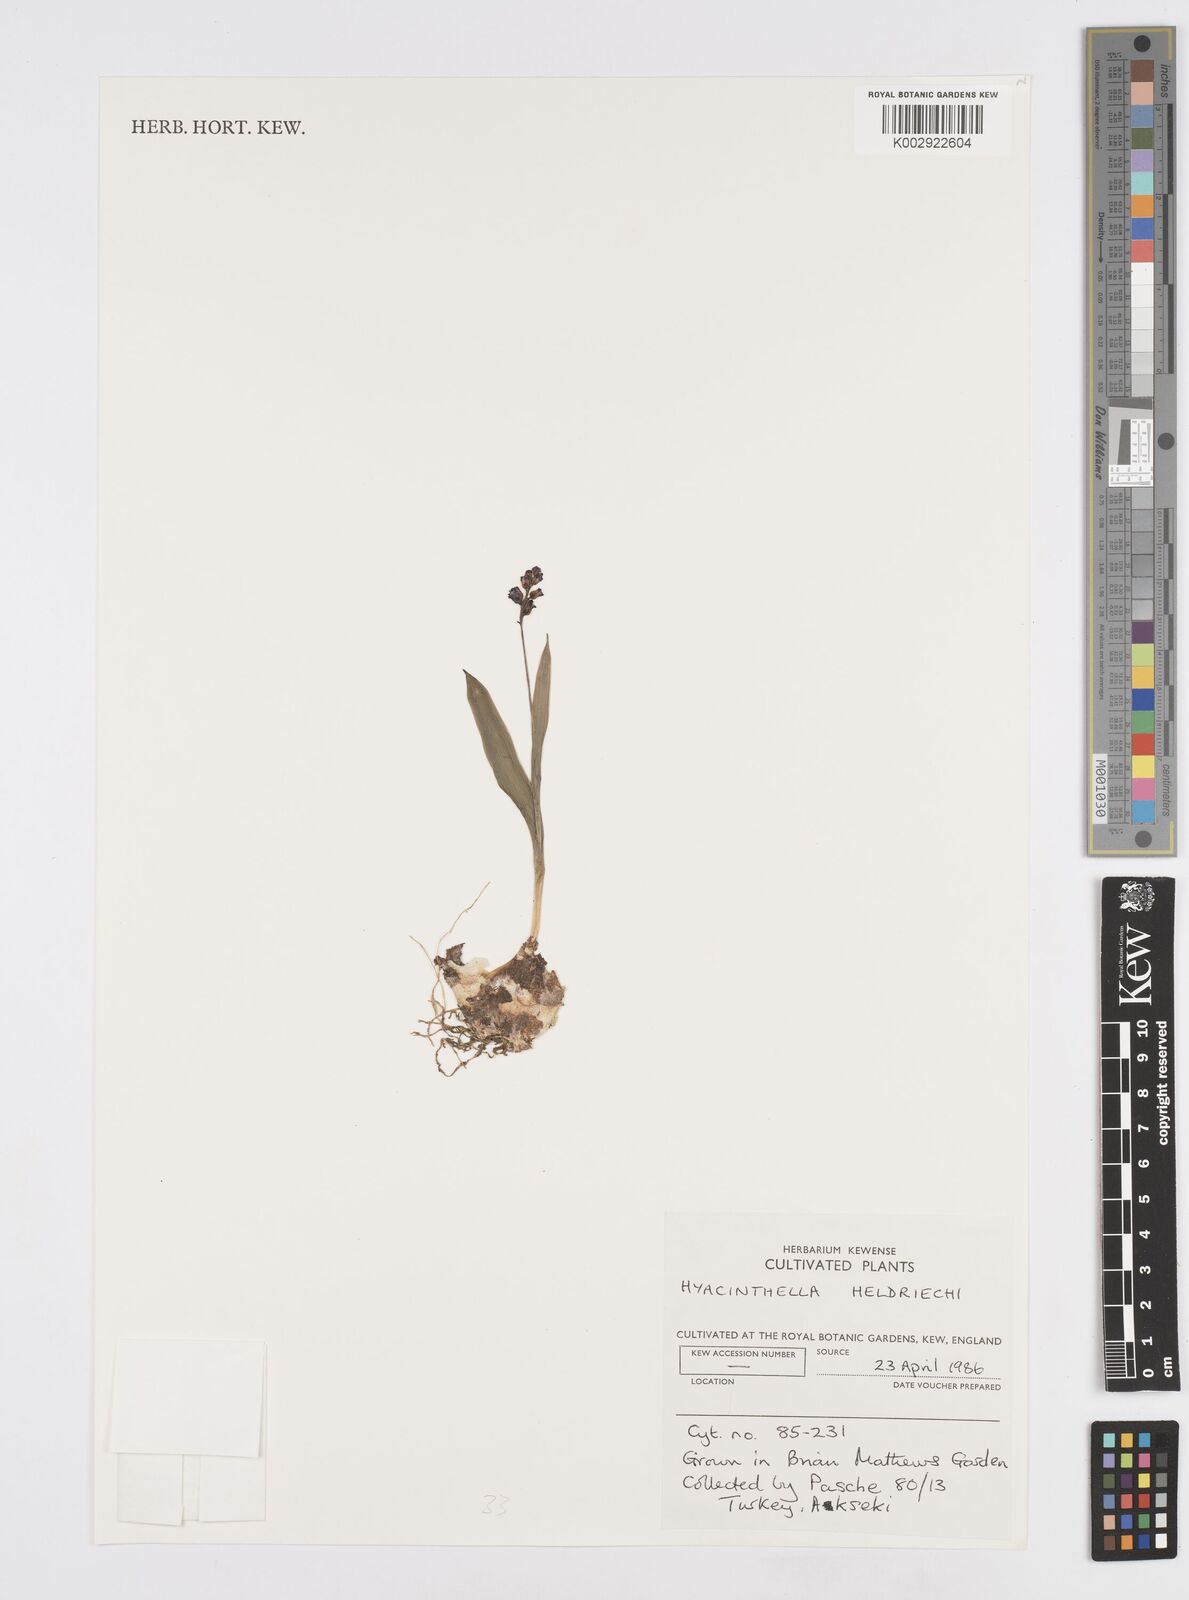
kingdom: Plantae
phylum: Tracheophyta
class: Liliopsida
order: Asparagales
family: Asparagaceae
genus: Hyacinthella
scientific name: Hyacinthella heldreichii
